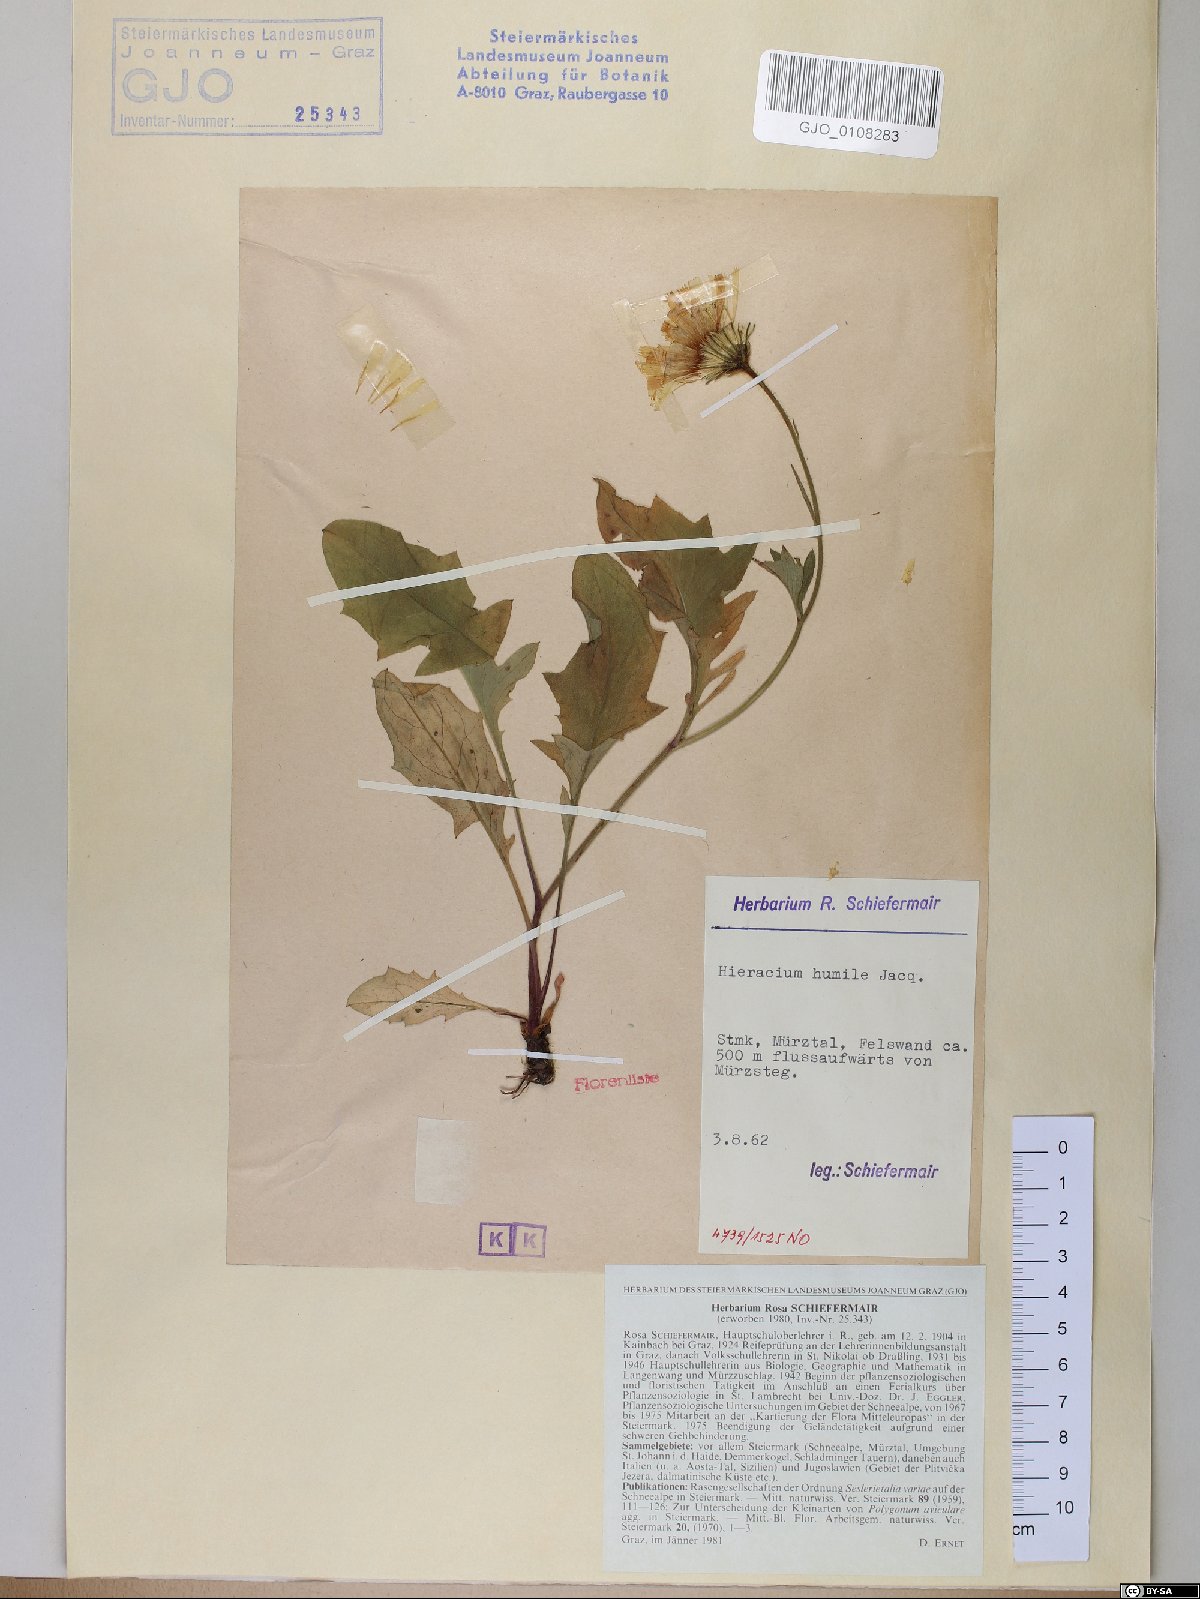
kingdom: Plantae
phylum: Tracheophyta
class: Magnoliopsida
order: Asterales
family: Asteraceae
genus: Hieracium
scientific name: Hieracium humile
